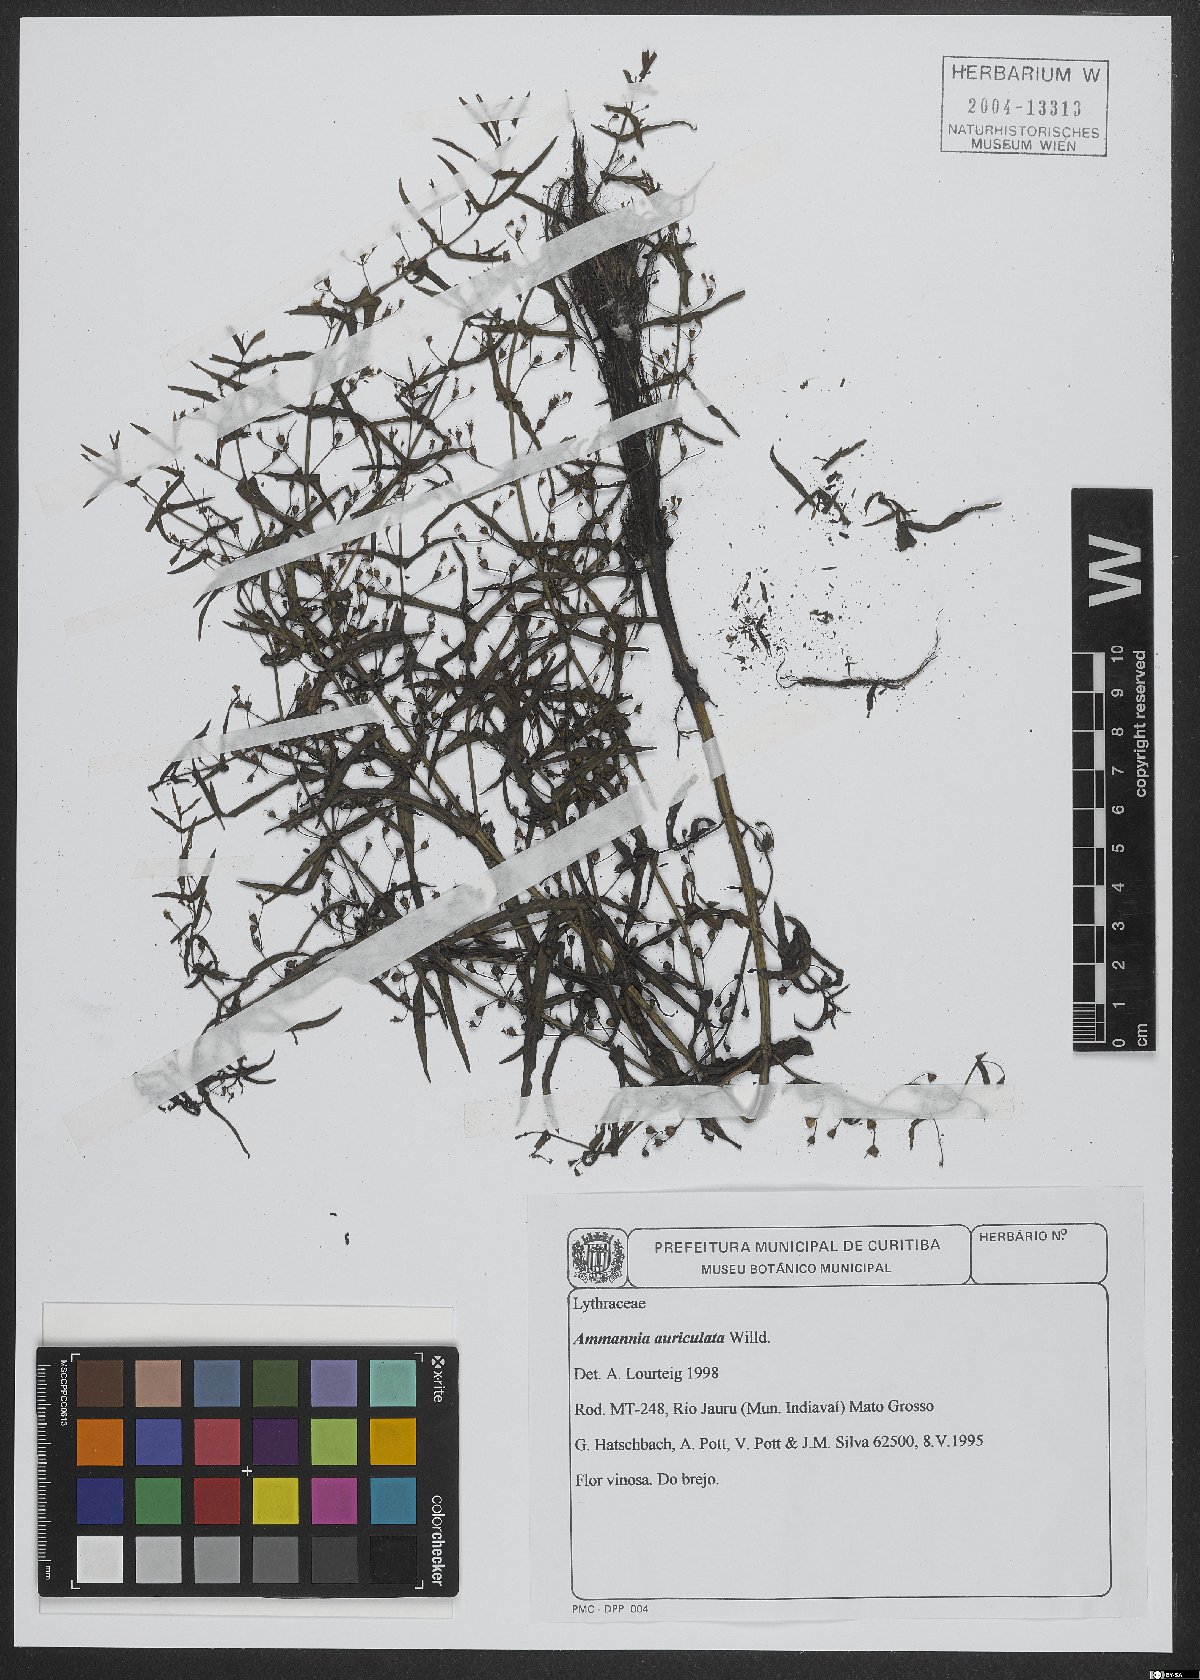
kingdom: Plantae
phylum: Tracheophyta
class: Magnoliopsida
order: Myrtales
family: Lythraceae
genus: Ammannia
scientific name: Ammannia auriculata
